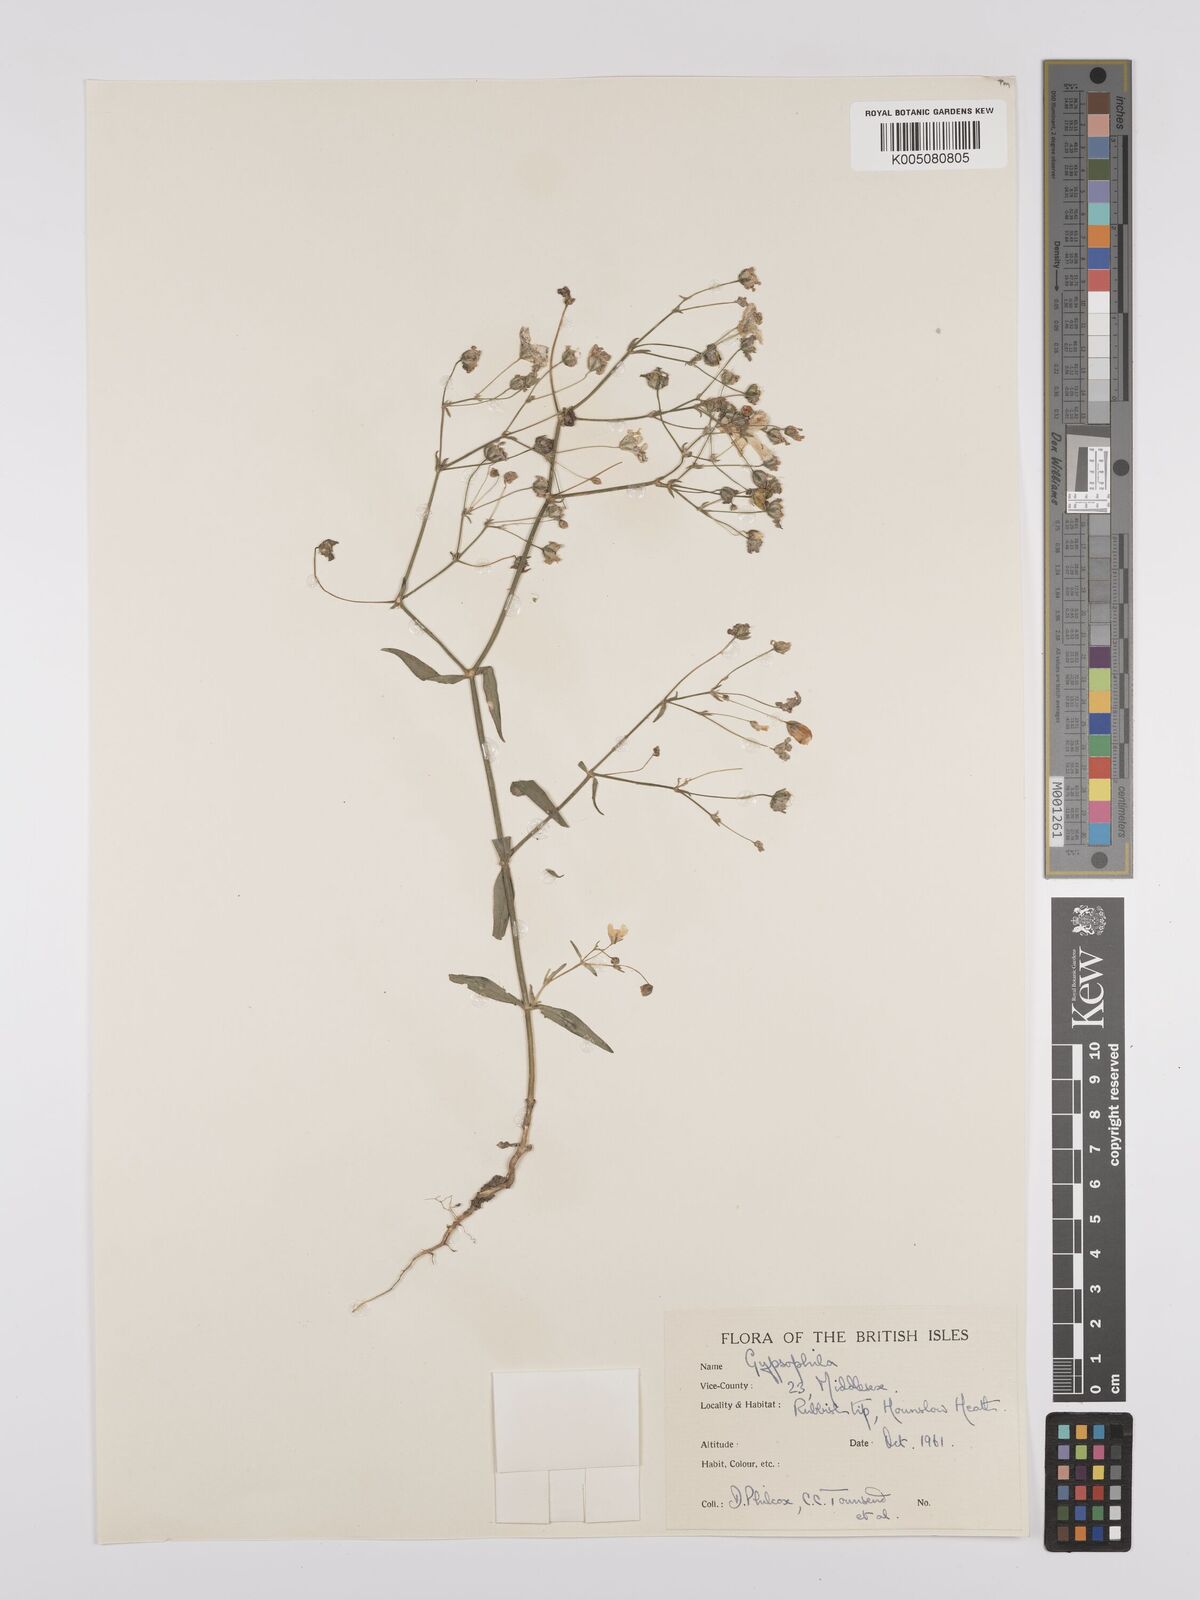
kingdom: Plantae
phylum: Tracheophyta
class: Magnoliopsida
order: Caryophyllales
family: Caryophyllaceae
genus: Gypsophila
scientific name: Gypsophila
